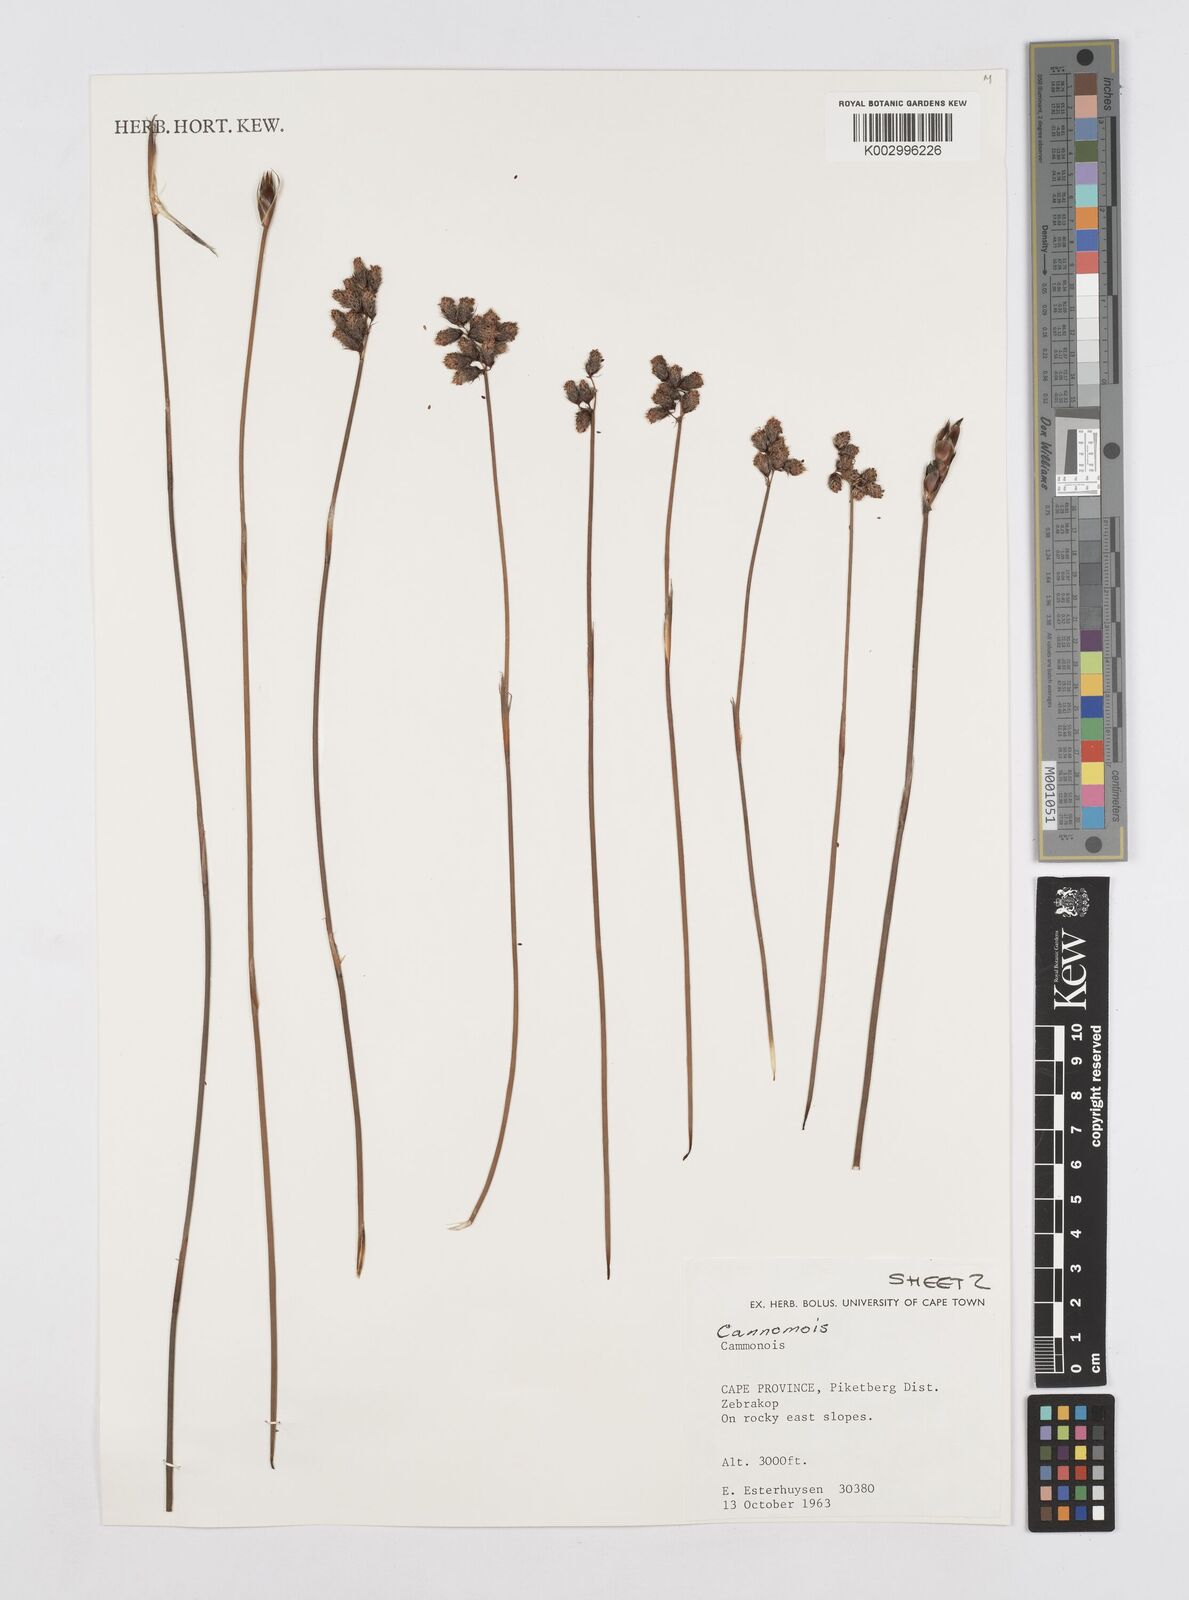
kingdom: Plantae
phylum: Tracheophyta
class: Liliopsida
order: Poales
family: Restionaceae
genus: Cannomois
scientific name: Cannomois
